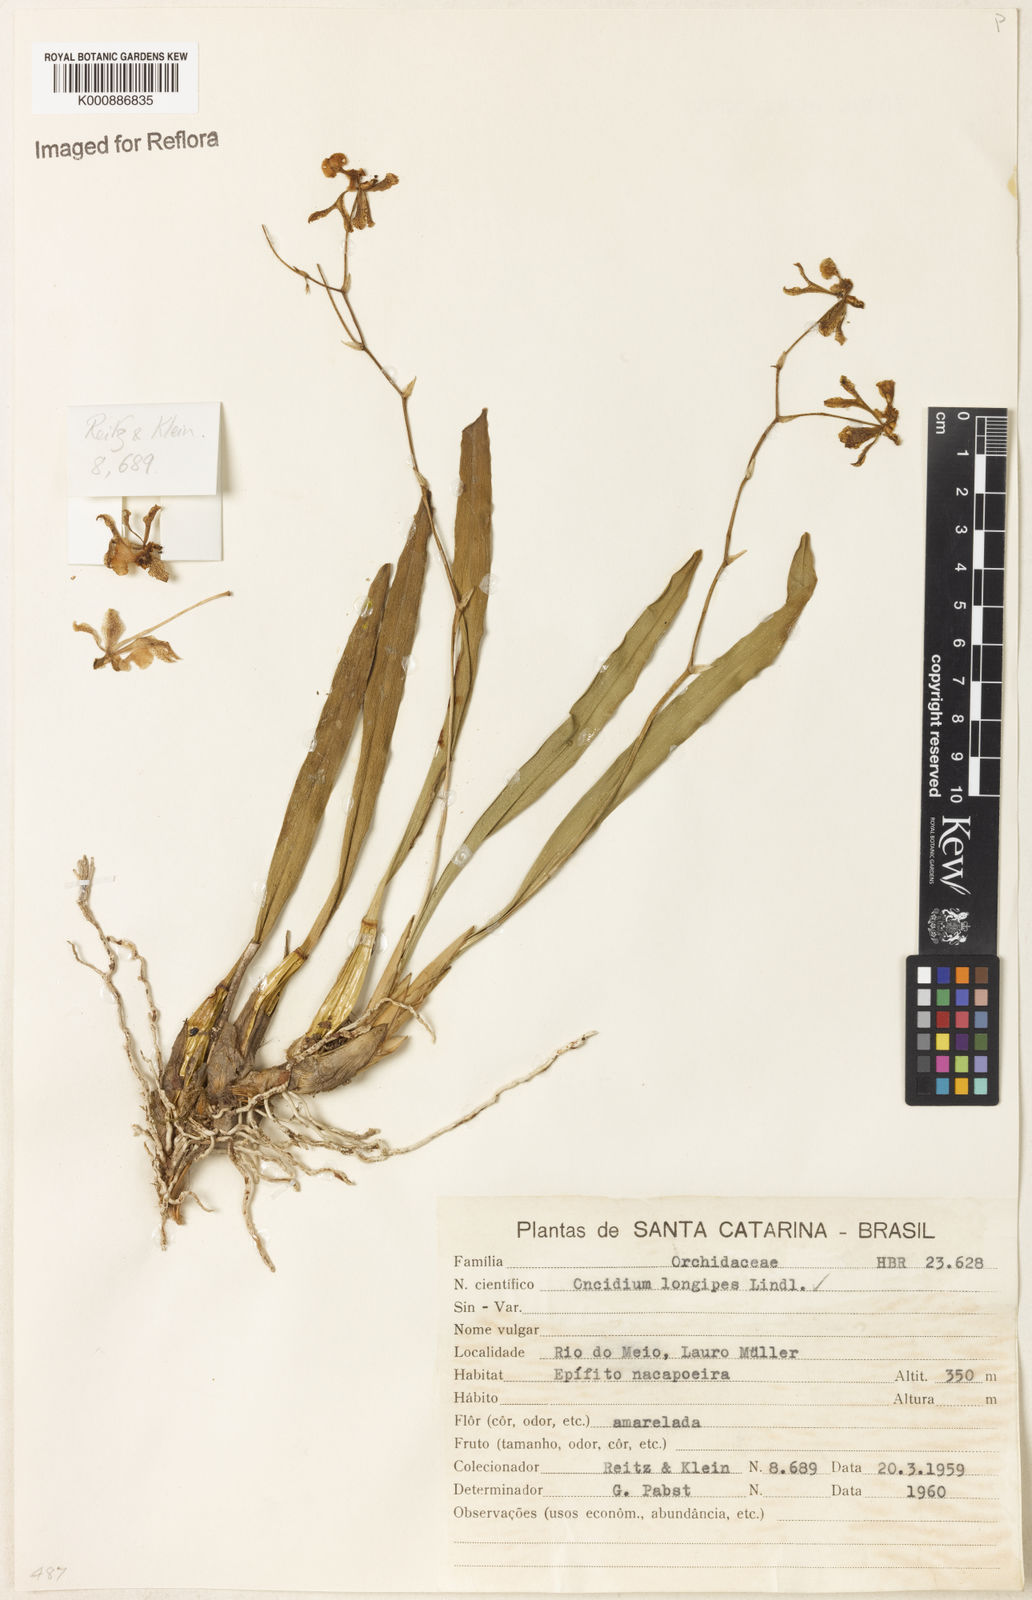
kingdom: Plantae
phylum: Tracheophyta
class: Liliopsida
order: Asparagales
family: Orchidaceae
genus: Gomesa
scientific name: Gomesa uniflora
